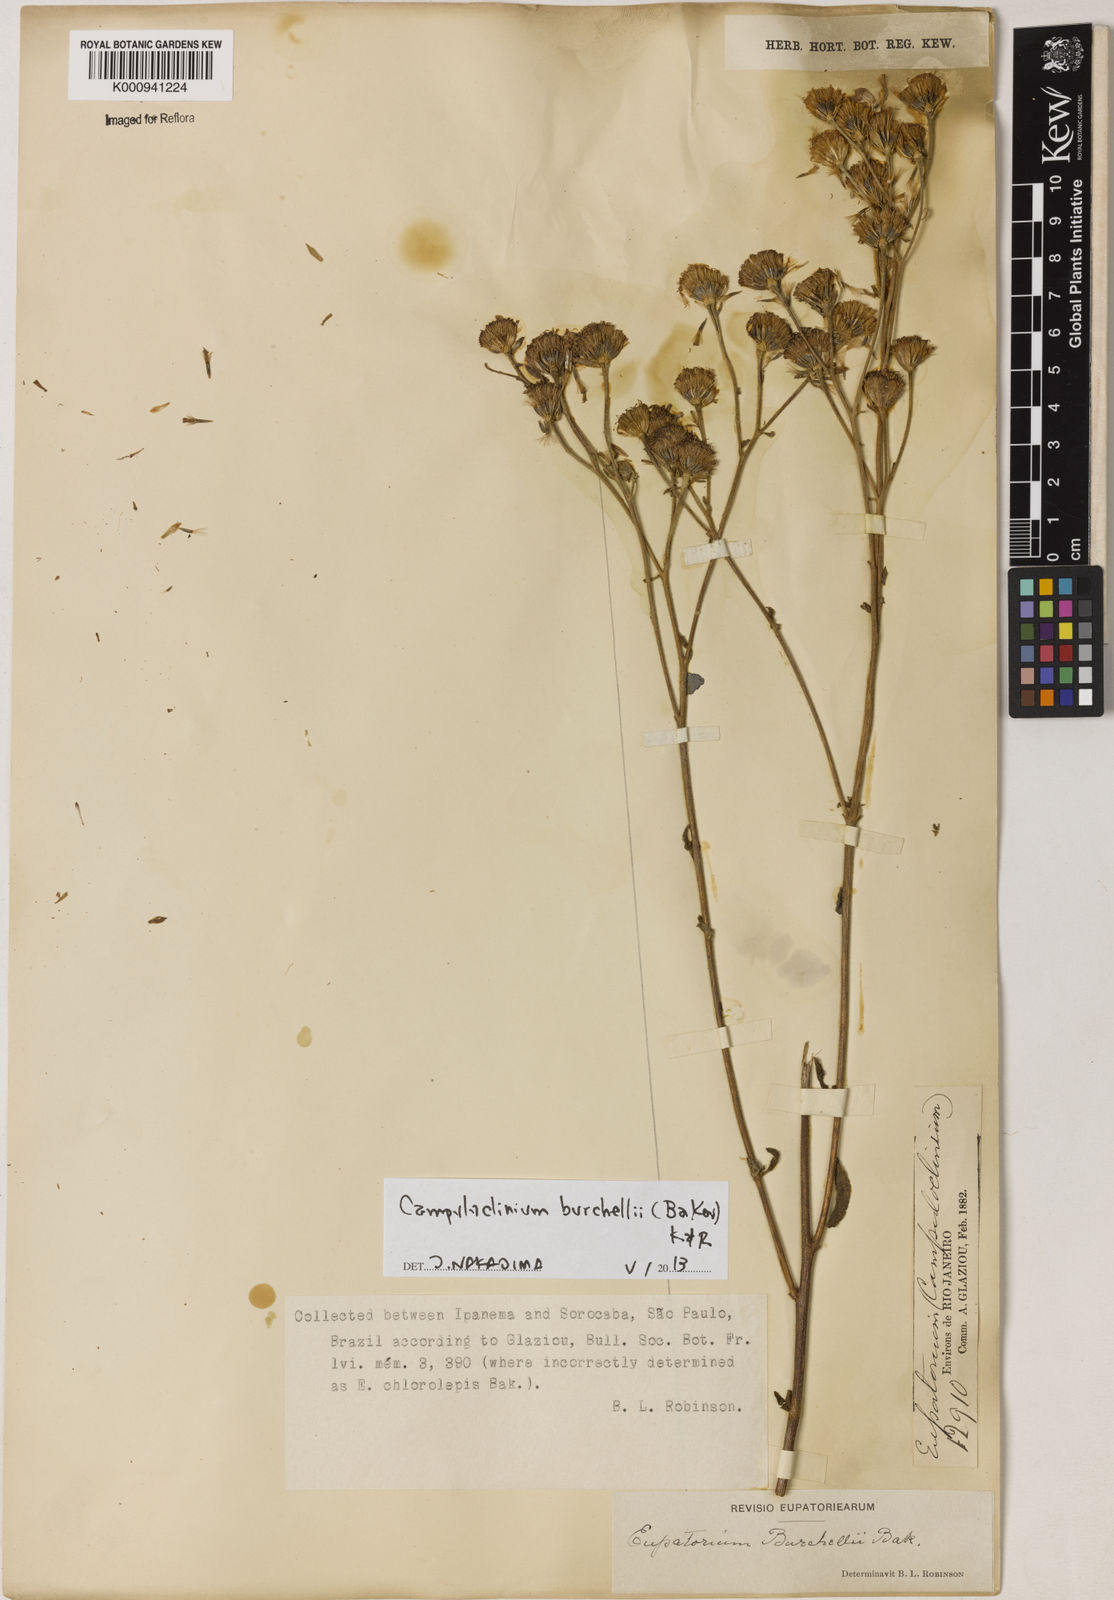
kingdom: Plantae
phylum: Tracheophyta
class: Magnoliopsida
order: Asterales
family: Asteraceae
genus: Campuloclinium
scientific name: Campuloclinium burchellii
